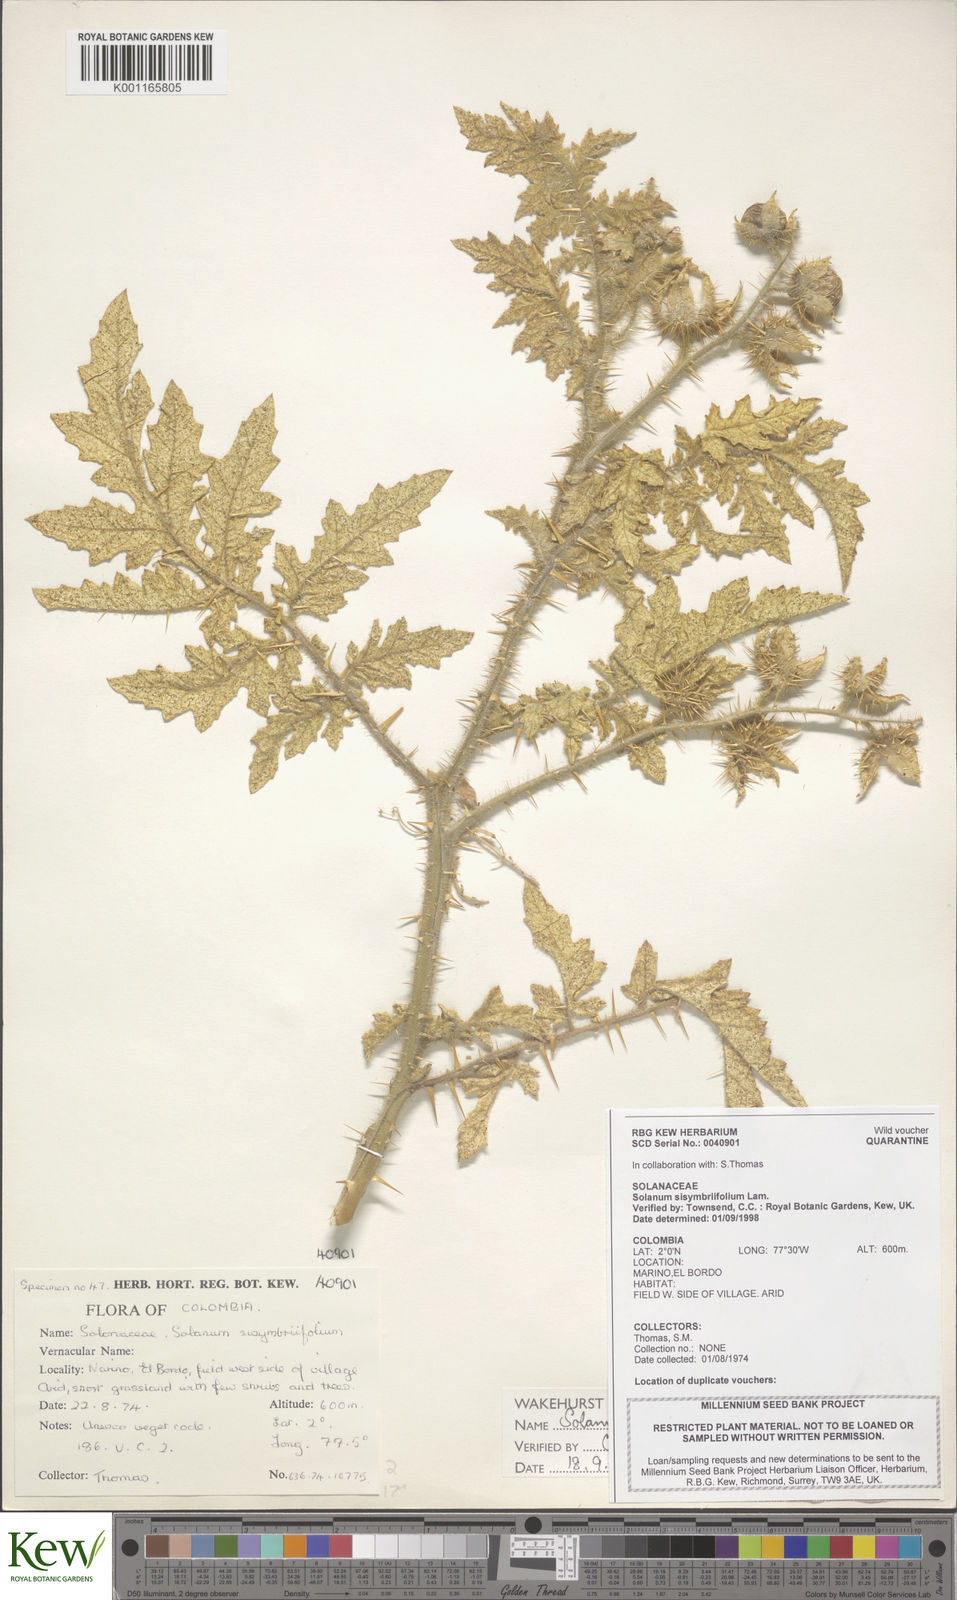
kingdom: Plantae
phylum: Tracheophyta
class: Magnoliopsida
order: Solanales
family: Solanaceae
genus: Solanum
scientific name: Solanum sisymbriifolium
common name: Red buffalo-bur
